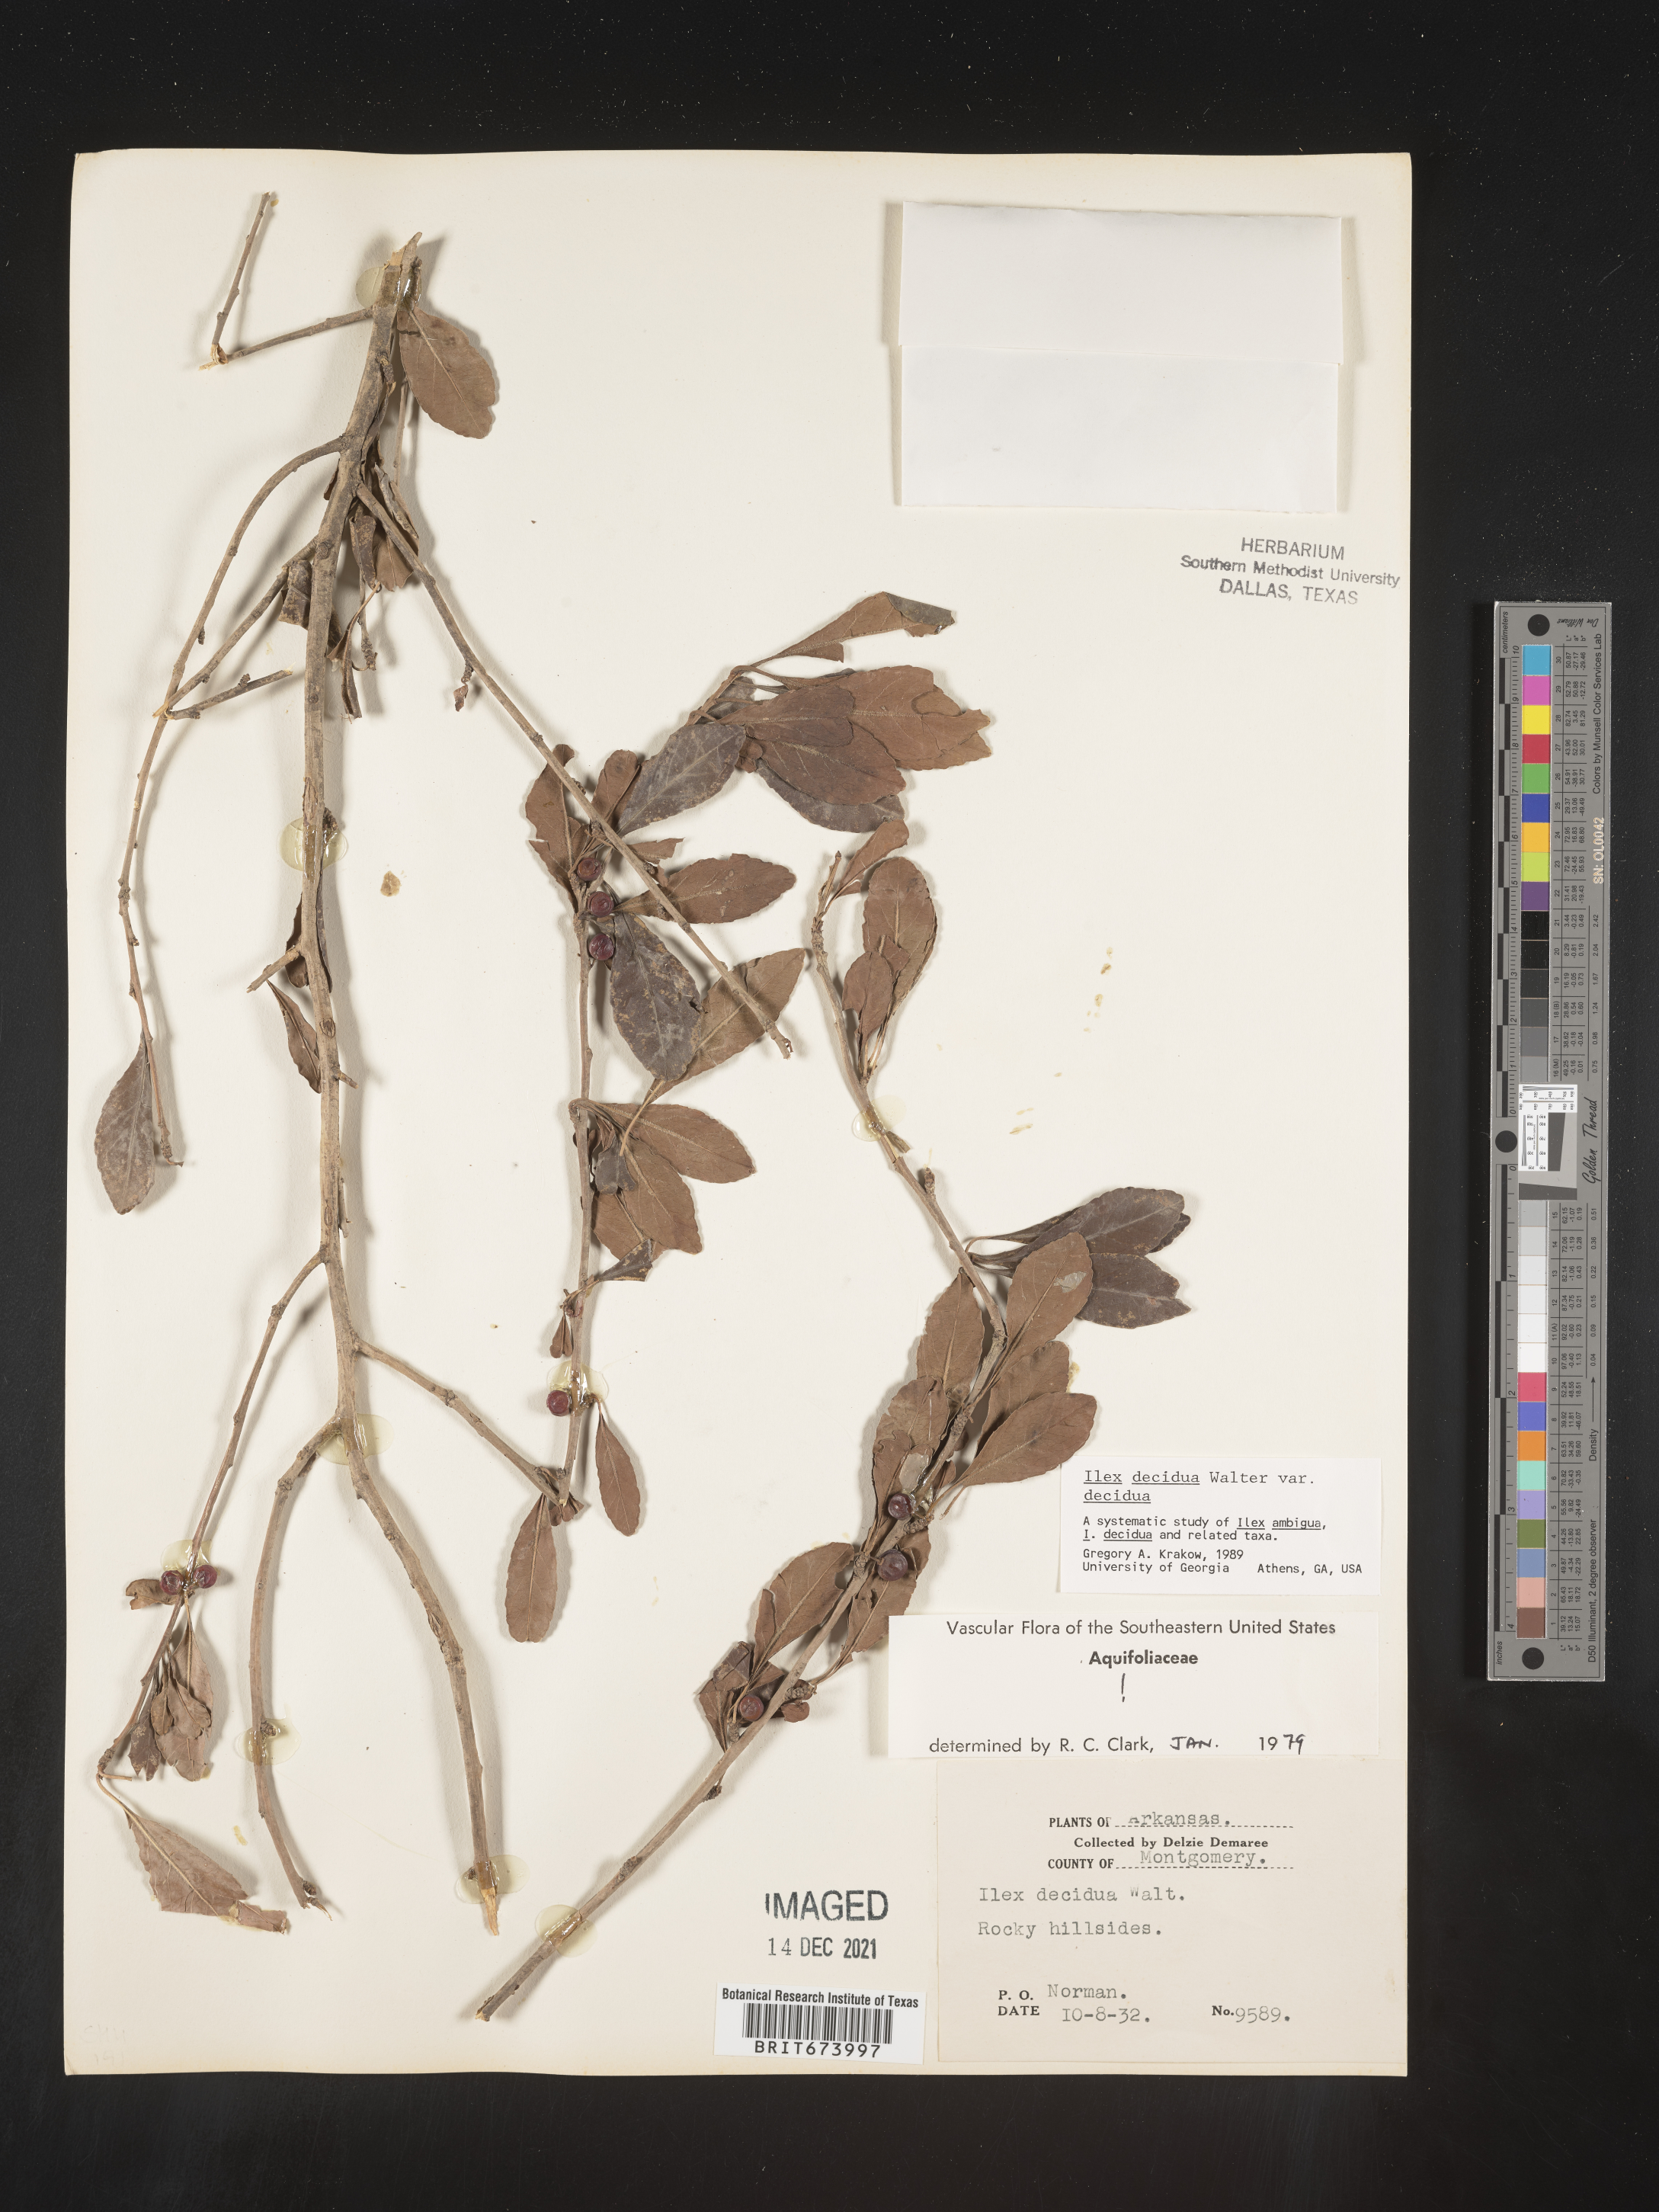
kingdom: Plantae
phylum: Tracheophyta
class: Magnoliopsida
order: Aquifoliales
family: Aquifoliaceae
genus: Ilex
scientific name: Ilex decidua
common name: Possum-haw
